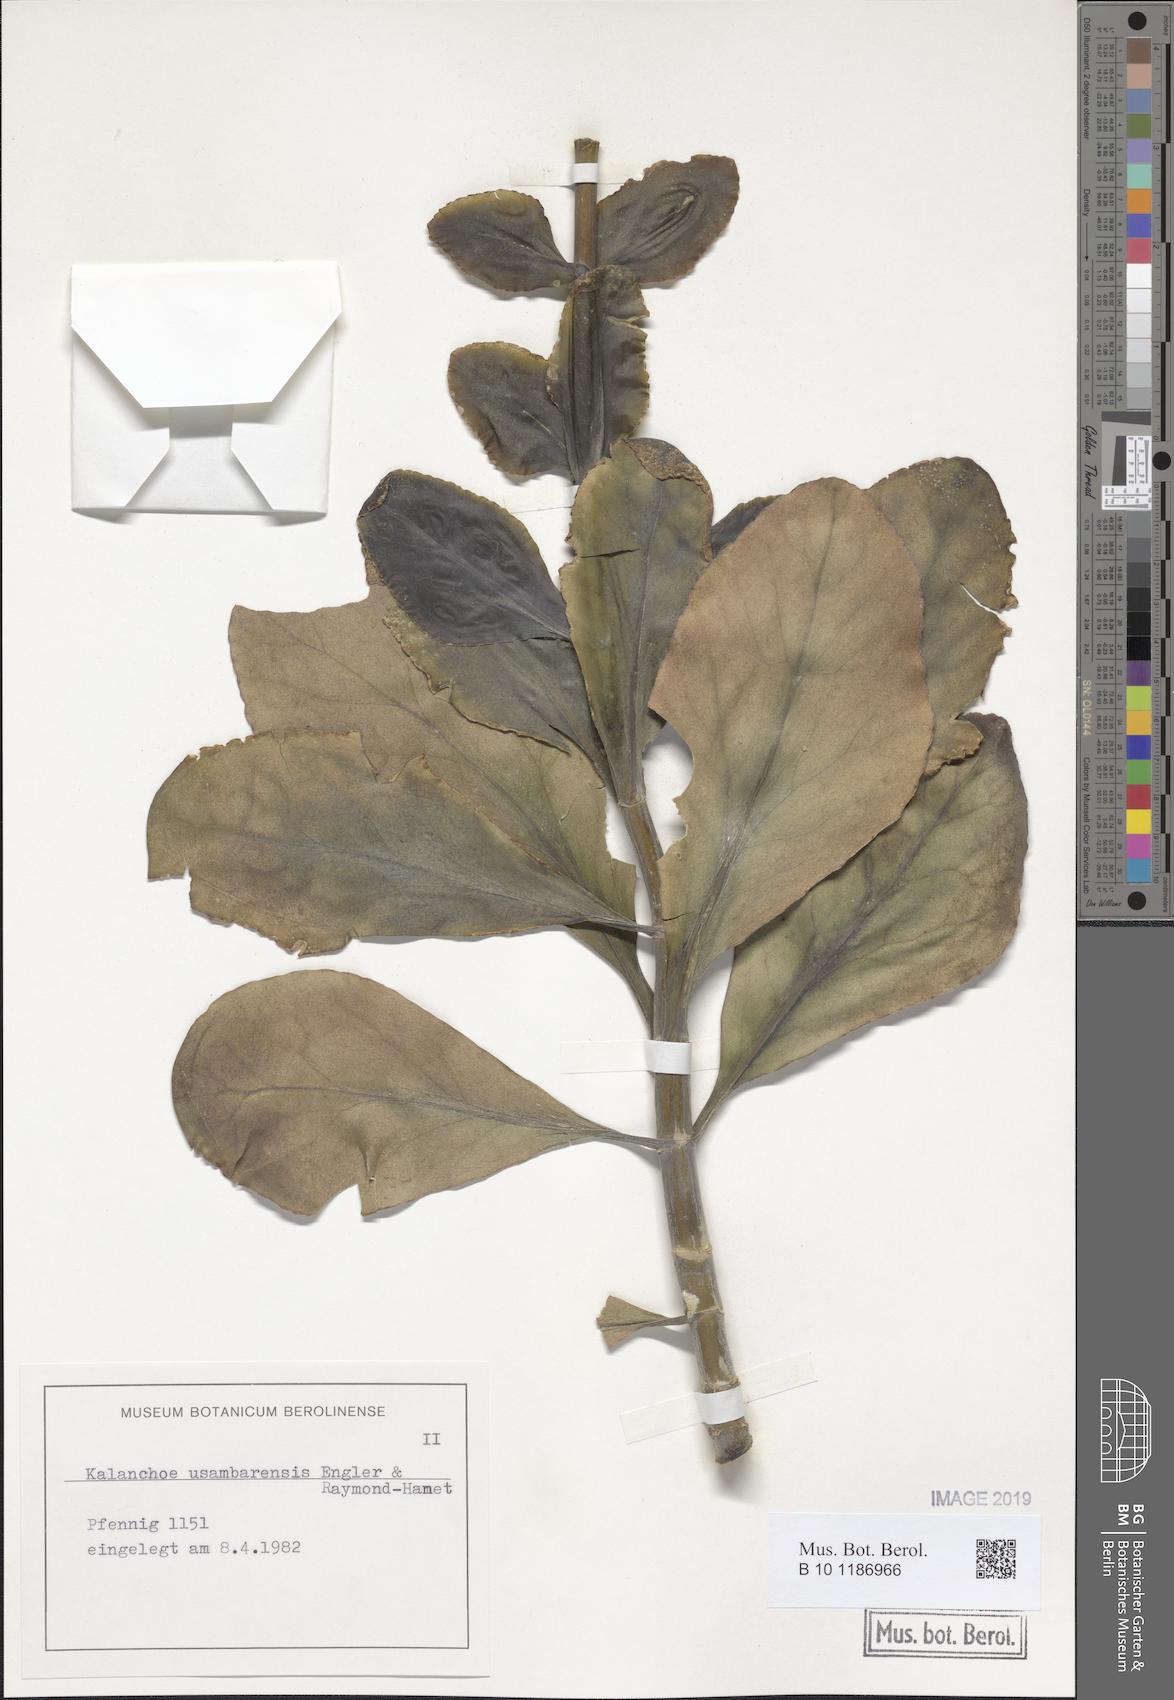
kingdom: Plantae
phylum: Tracheophyta
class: Magnoliopsida
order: Saxifragales
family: Crassulaceae
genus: Kalanchoe
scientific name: Kalanchoe usambarensis
